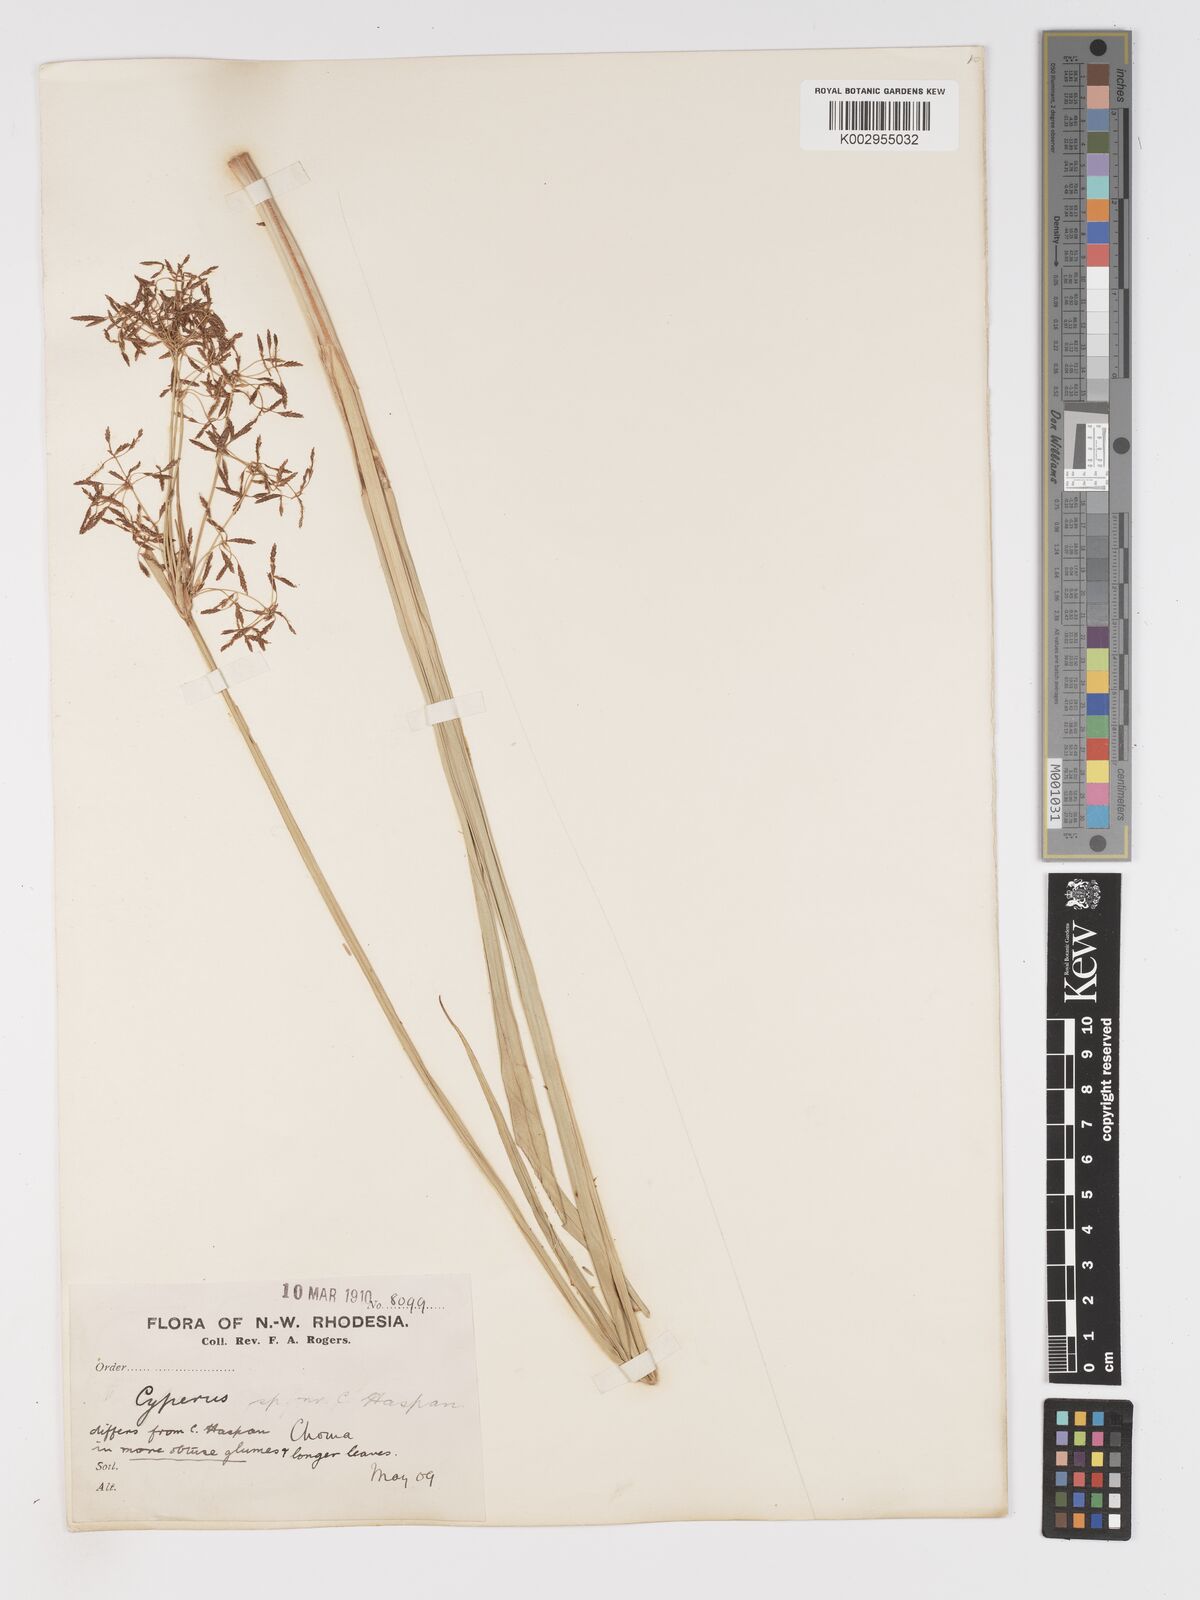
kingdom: Plantae
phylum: Tracheophyta
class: Liliopsida
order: Poales
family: Cyperaceae
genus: Cyperus
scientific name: Cyperus haspan
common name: Haspan flatsedge
